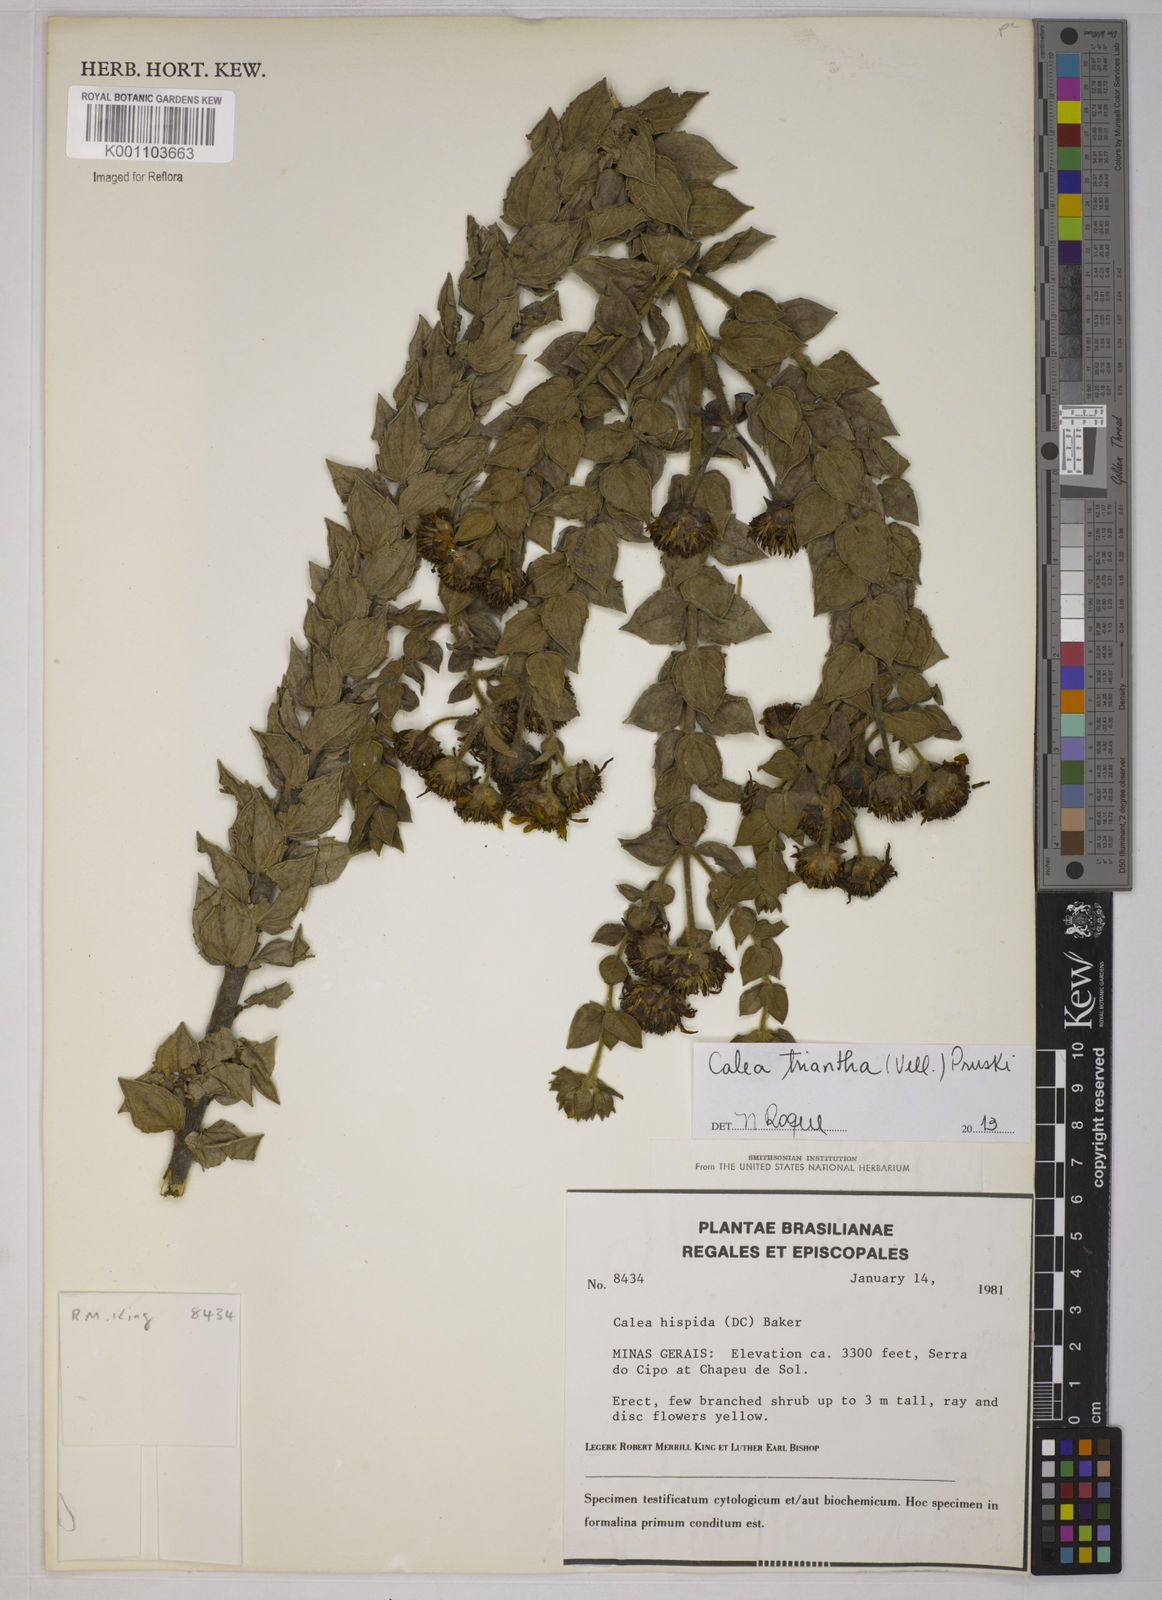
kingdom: Plantae
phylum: Tracheophyta
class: Magnoliopsida
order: Asterales
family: Asteraceae
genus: Calea
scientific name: Calea triantha
